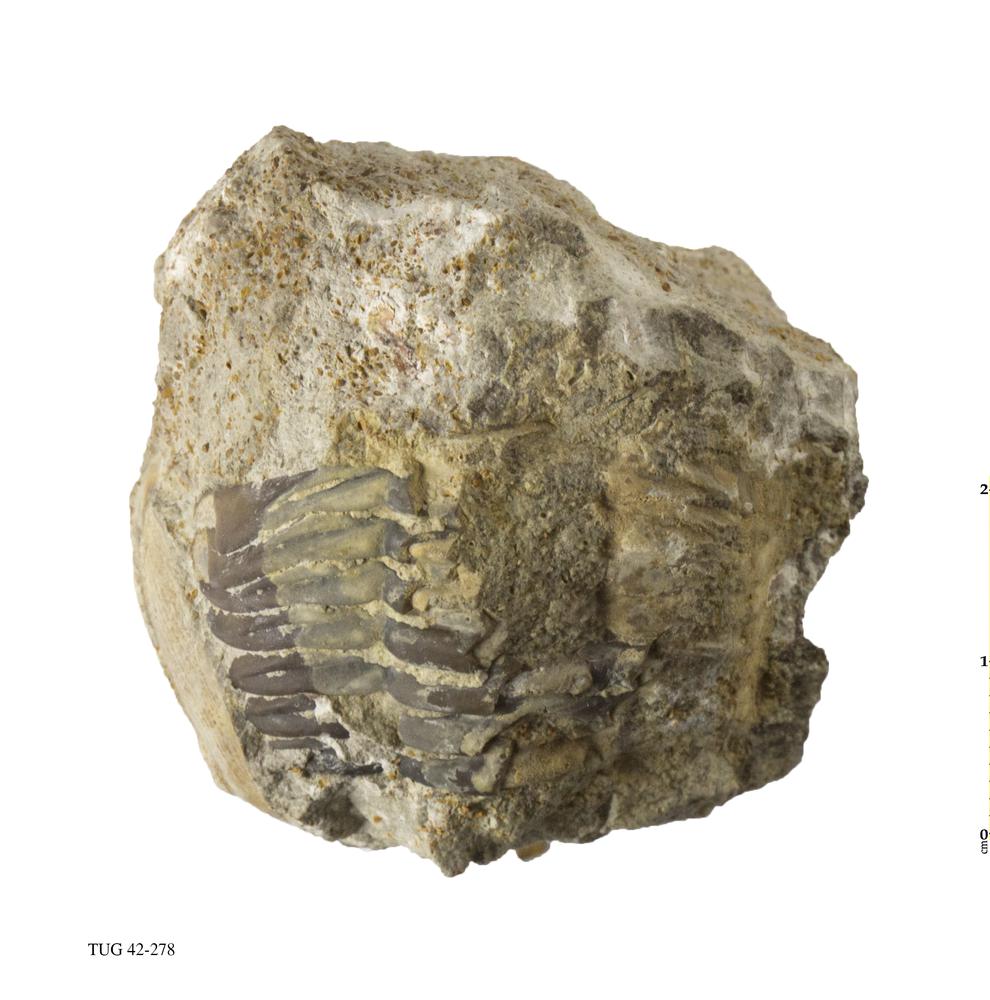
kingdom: Animalia
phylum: Arthropoda
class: Trilobita
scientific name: Trilobita
